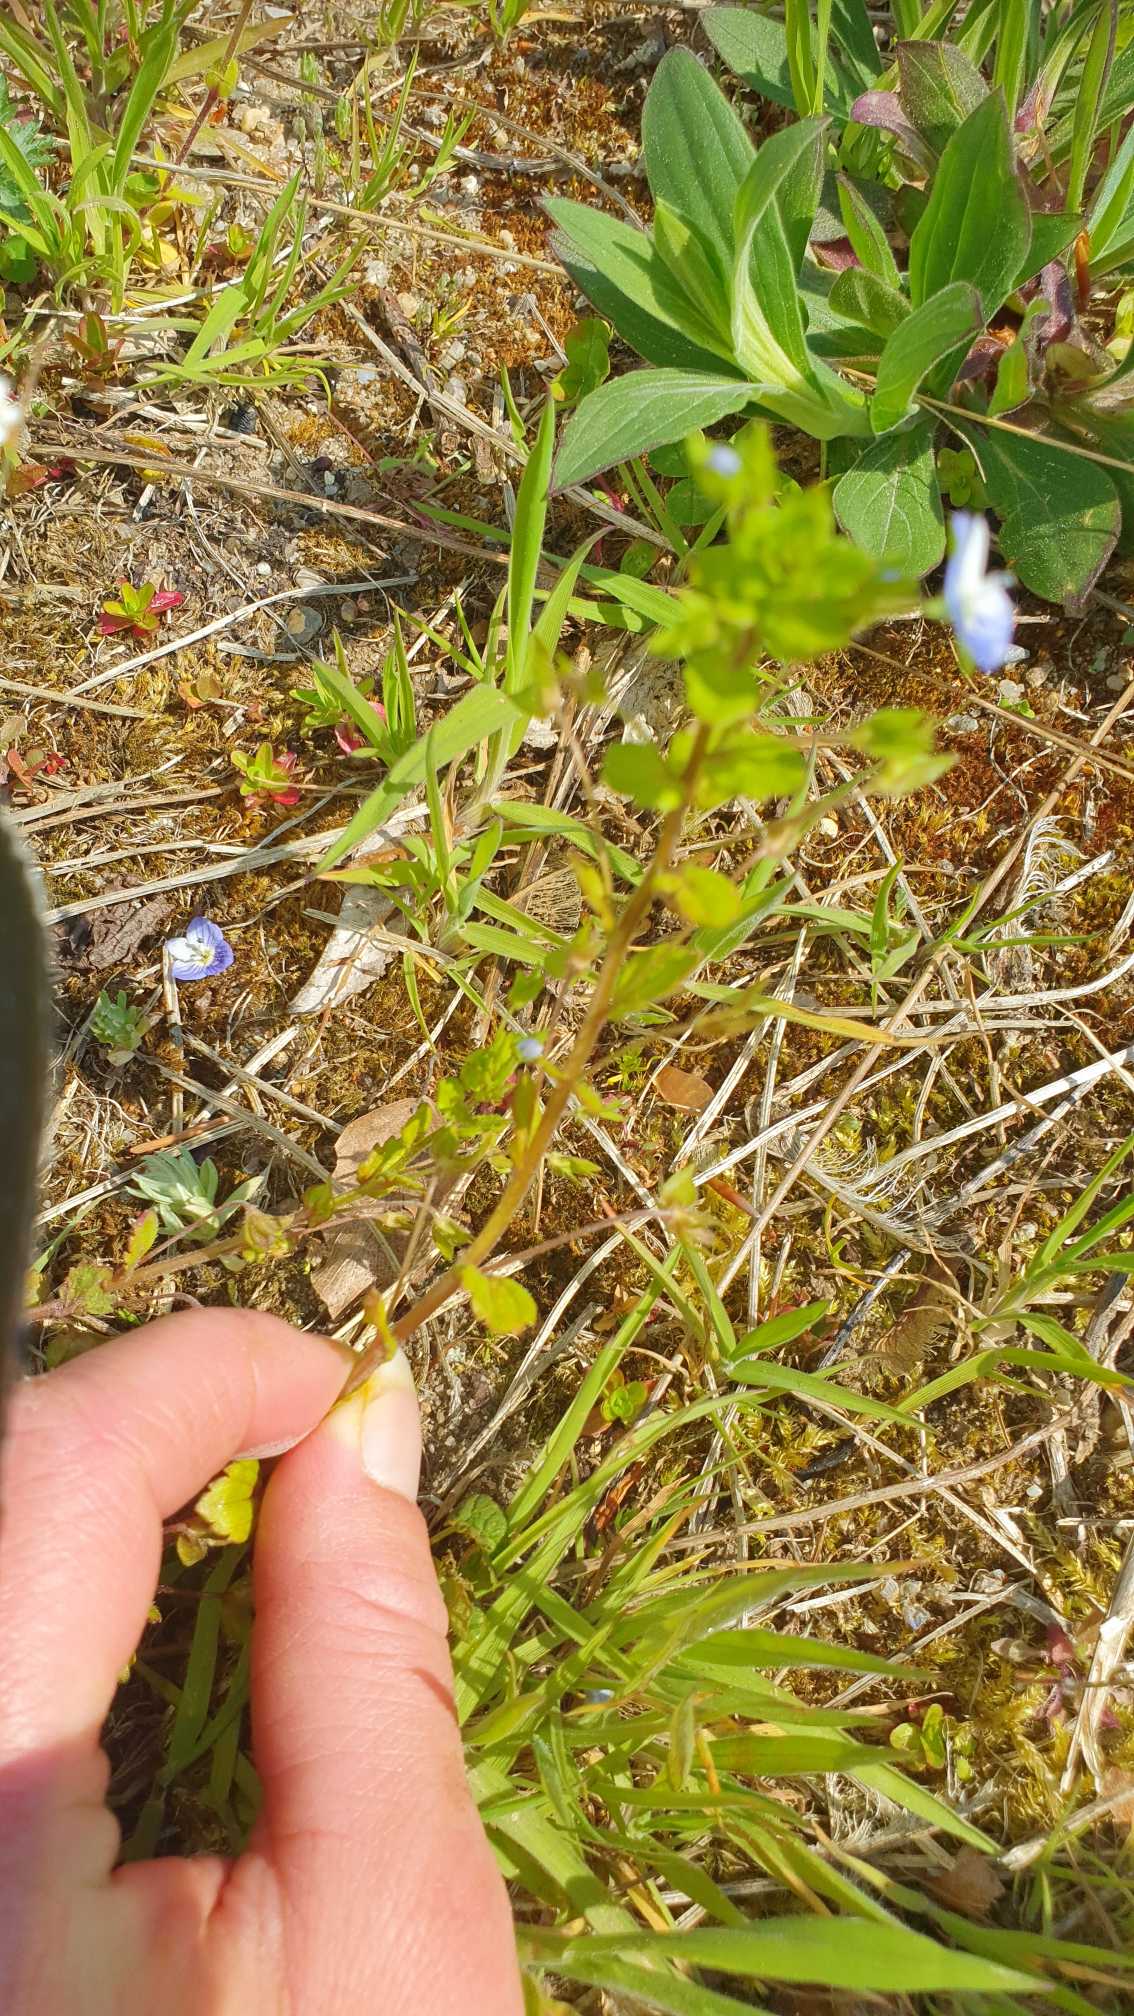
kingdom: Plantae
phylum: Tracheophyta
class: Magnoliopsida
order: Malpighiales
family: Violaceae
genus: Viola
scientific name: Viola arvensis
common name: Ager-stedmoderblomst
